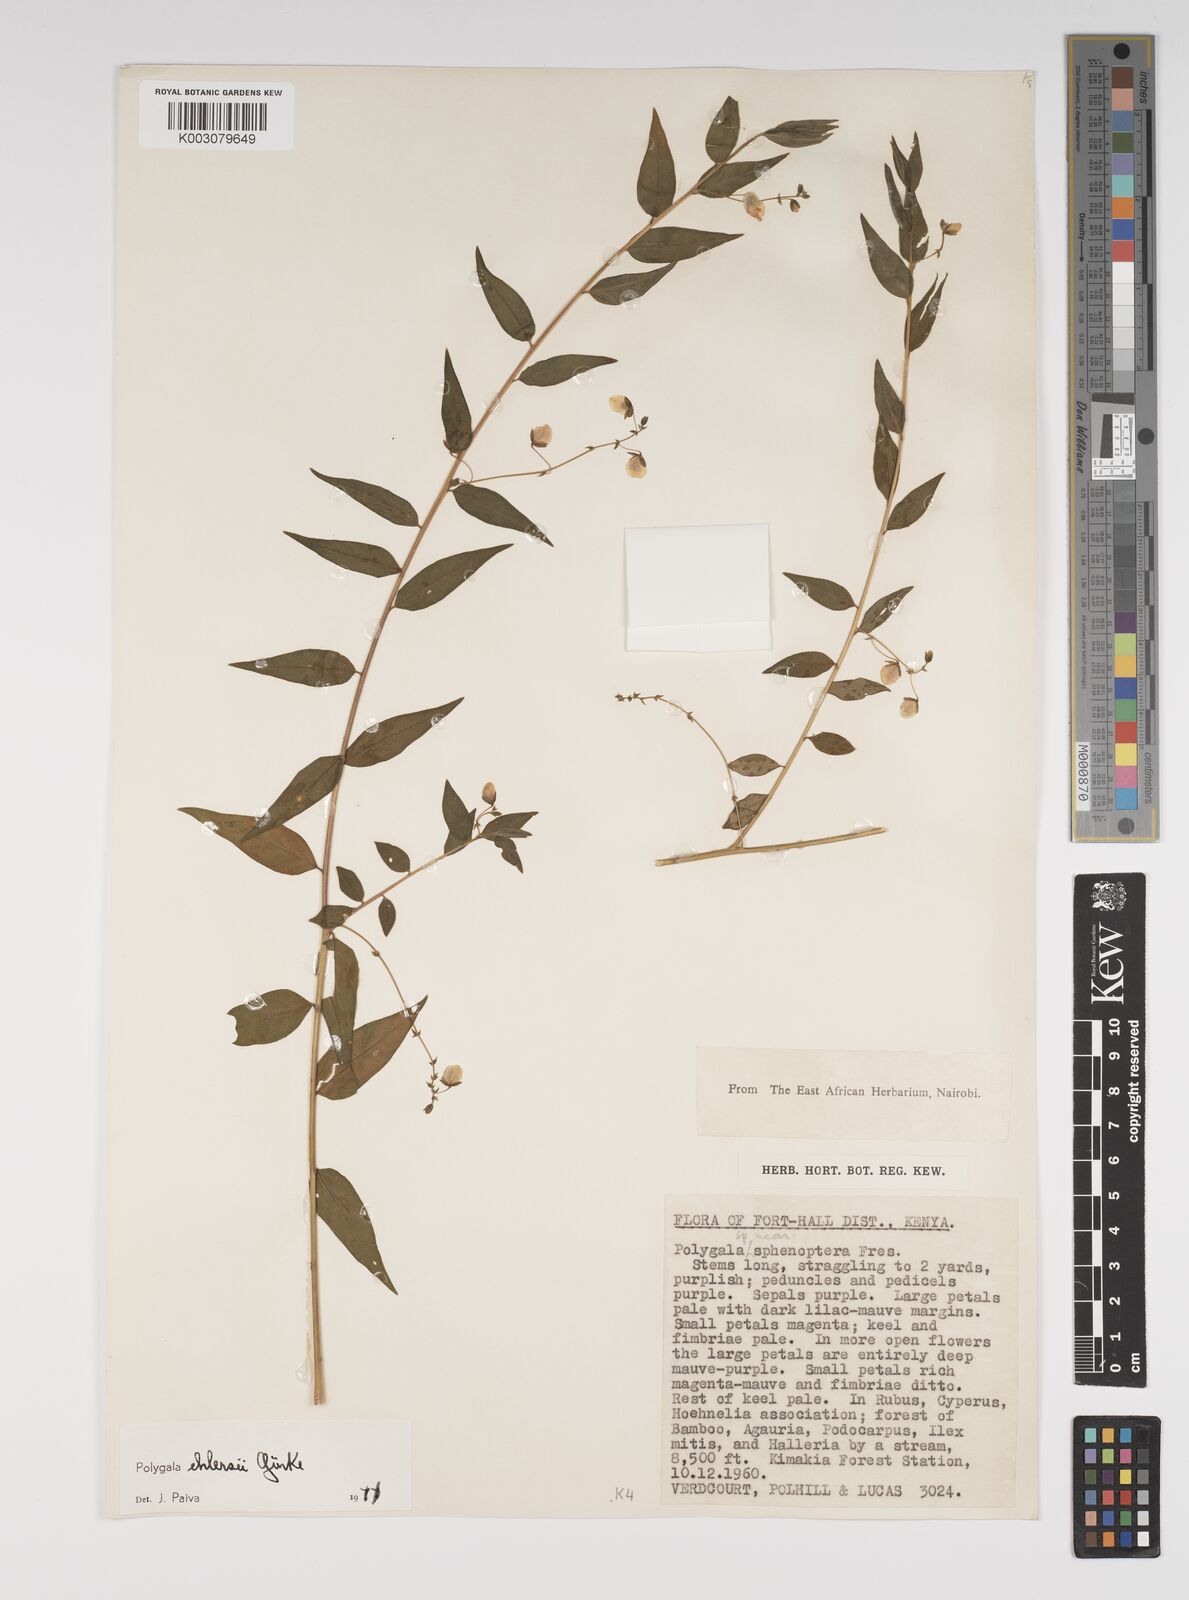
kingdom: Plantae
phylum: Tracheophyta
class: Magnoliopsida
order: Fabales
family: Polygalaceae
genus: Polygala
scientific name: Polygala ehlersii
